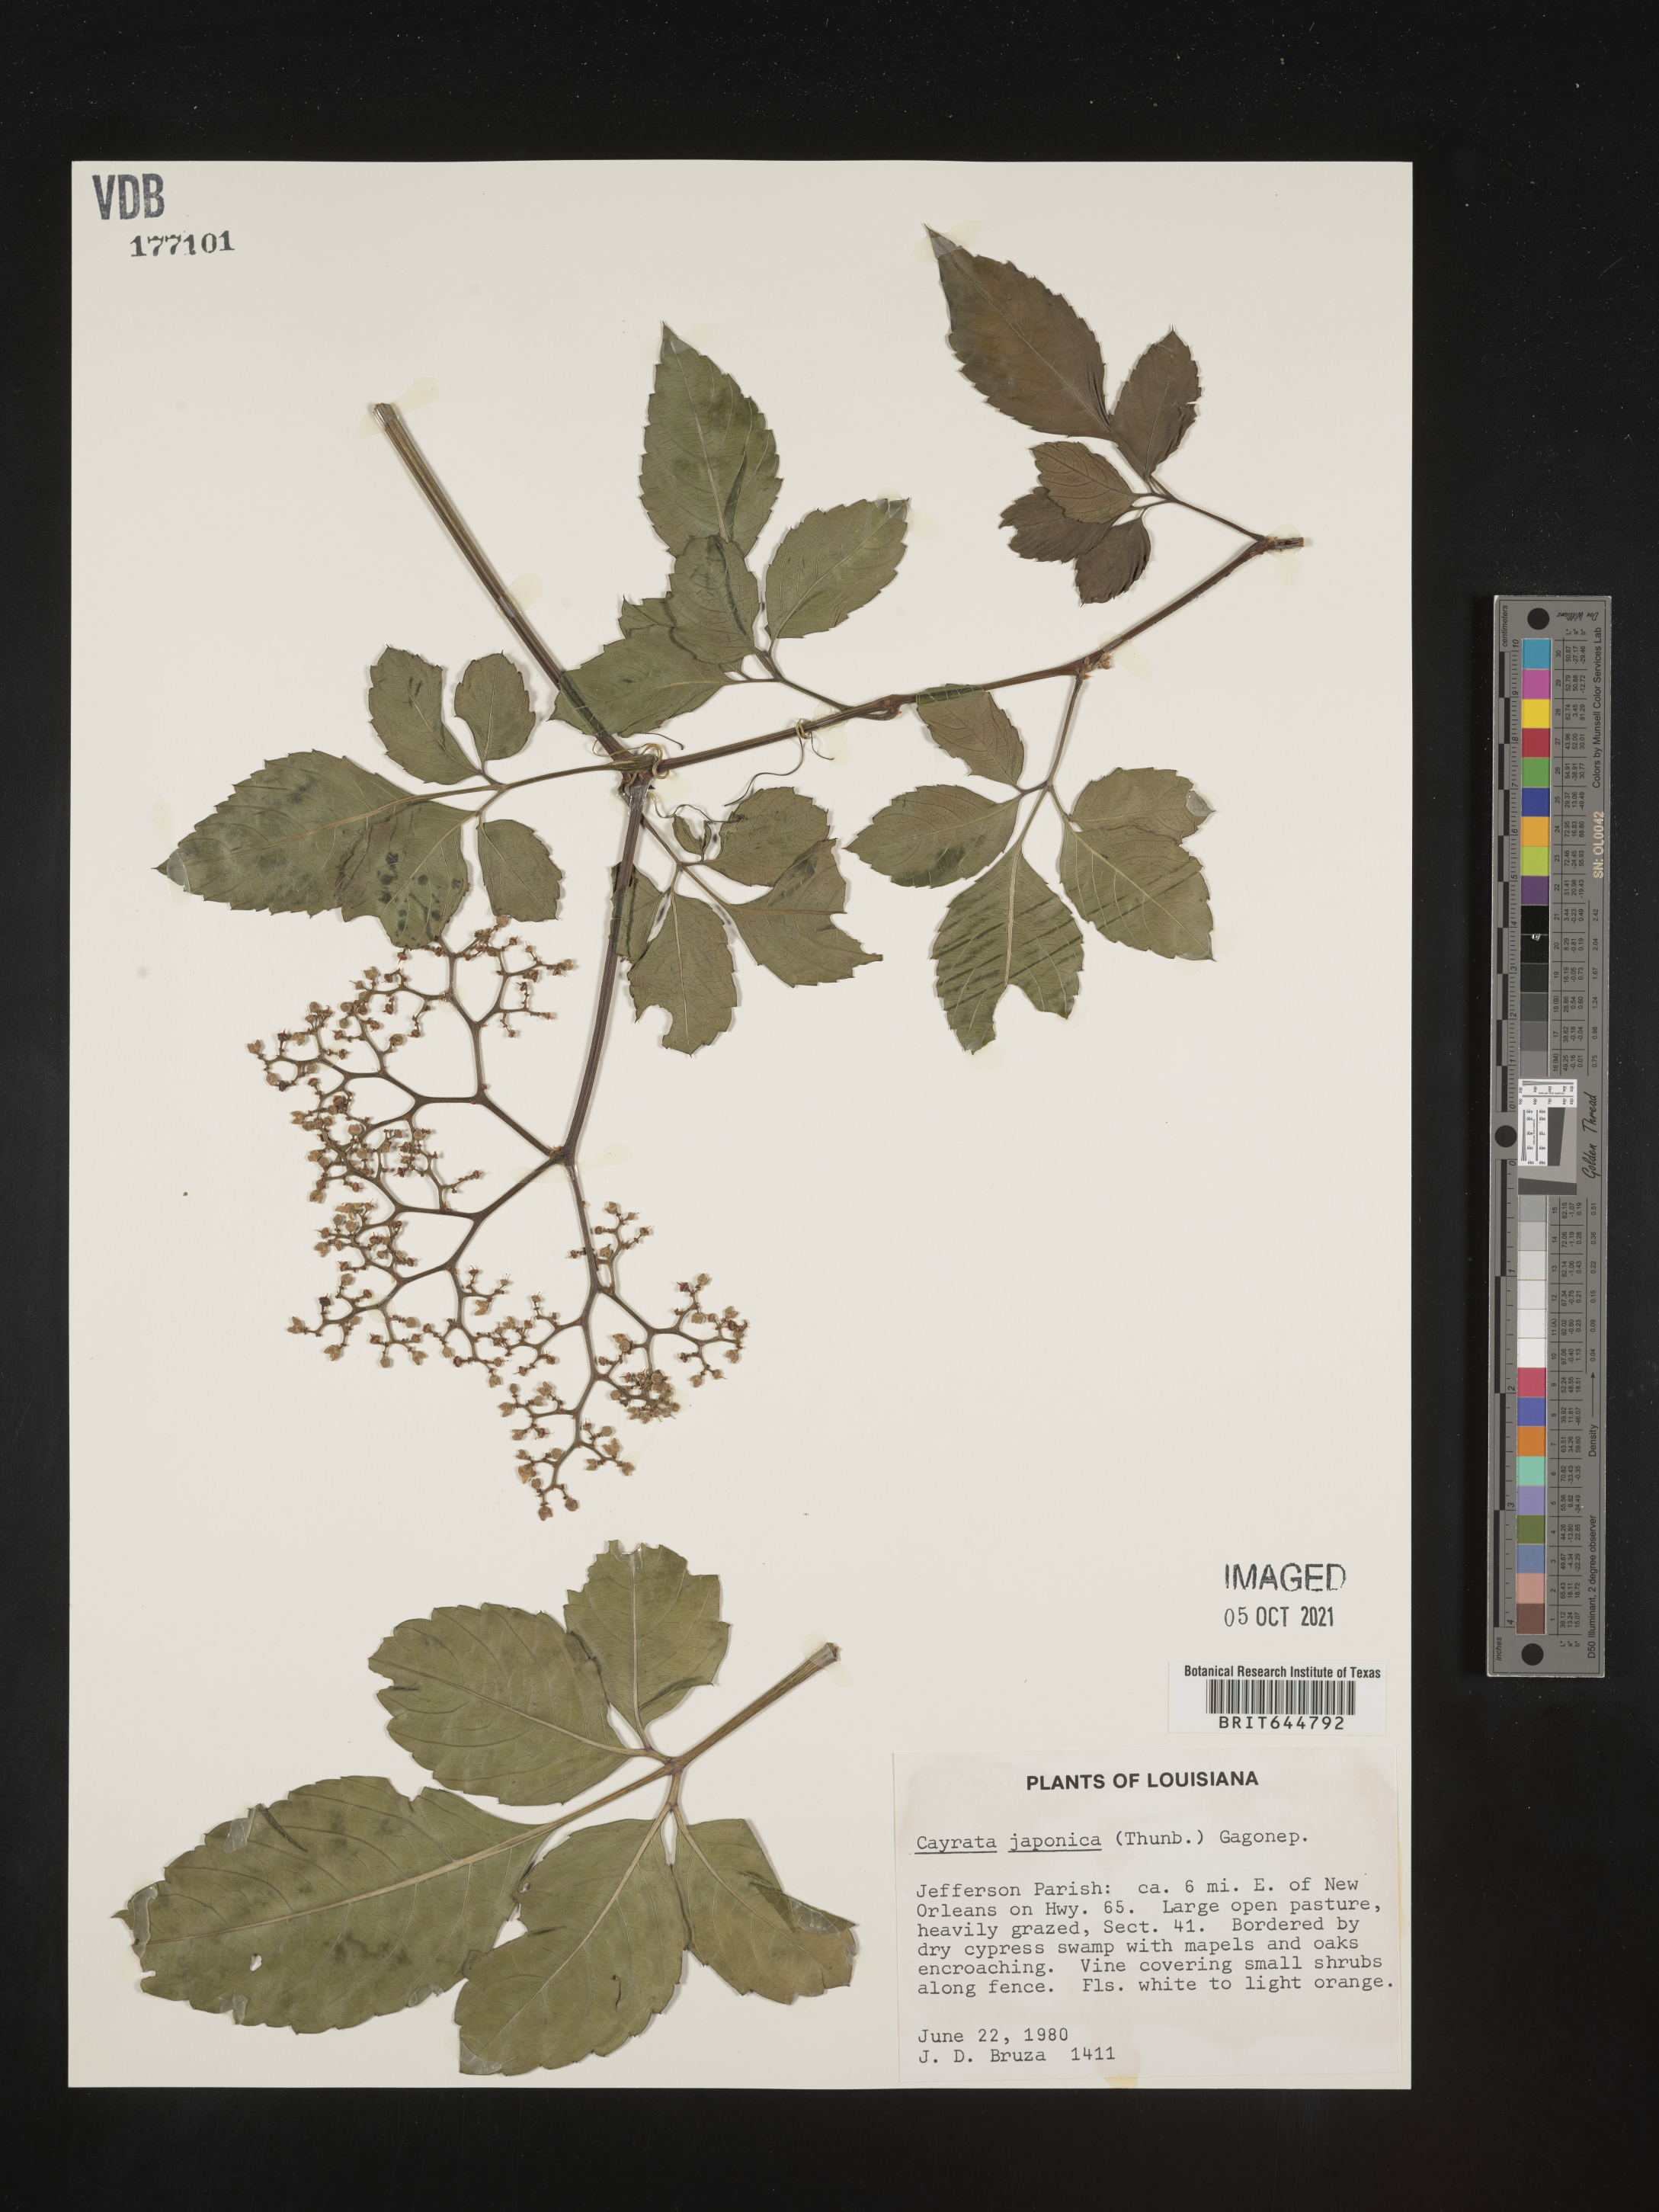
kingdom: Plantae
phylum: Tracheophyta
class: Magnoliopsida
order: Vitales
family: Vitaceae
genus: Causonis
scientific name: Causonis japonica
